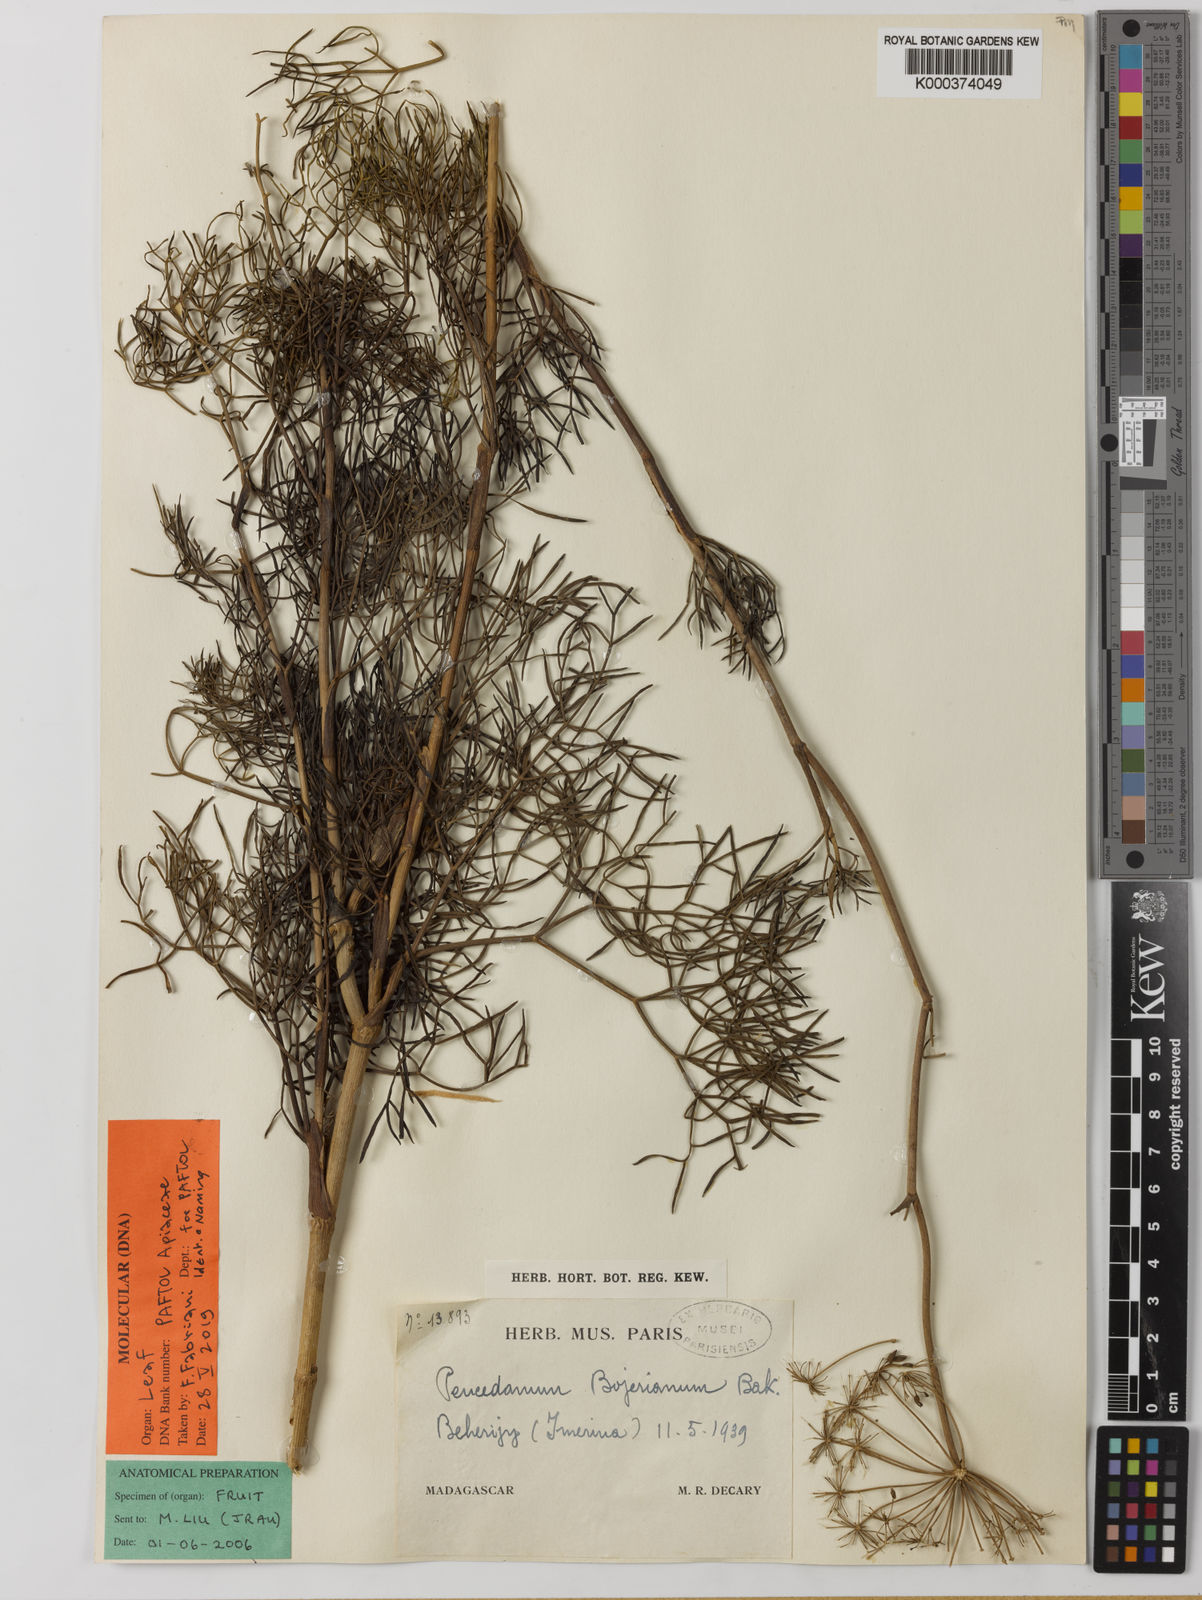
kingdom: Plantae
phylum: Tracheophyta
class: Magnoliopsida
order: Apiales
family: Apiaceae
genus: Tana
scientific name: Tana bojeriana
